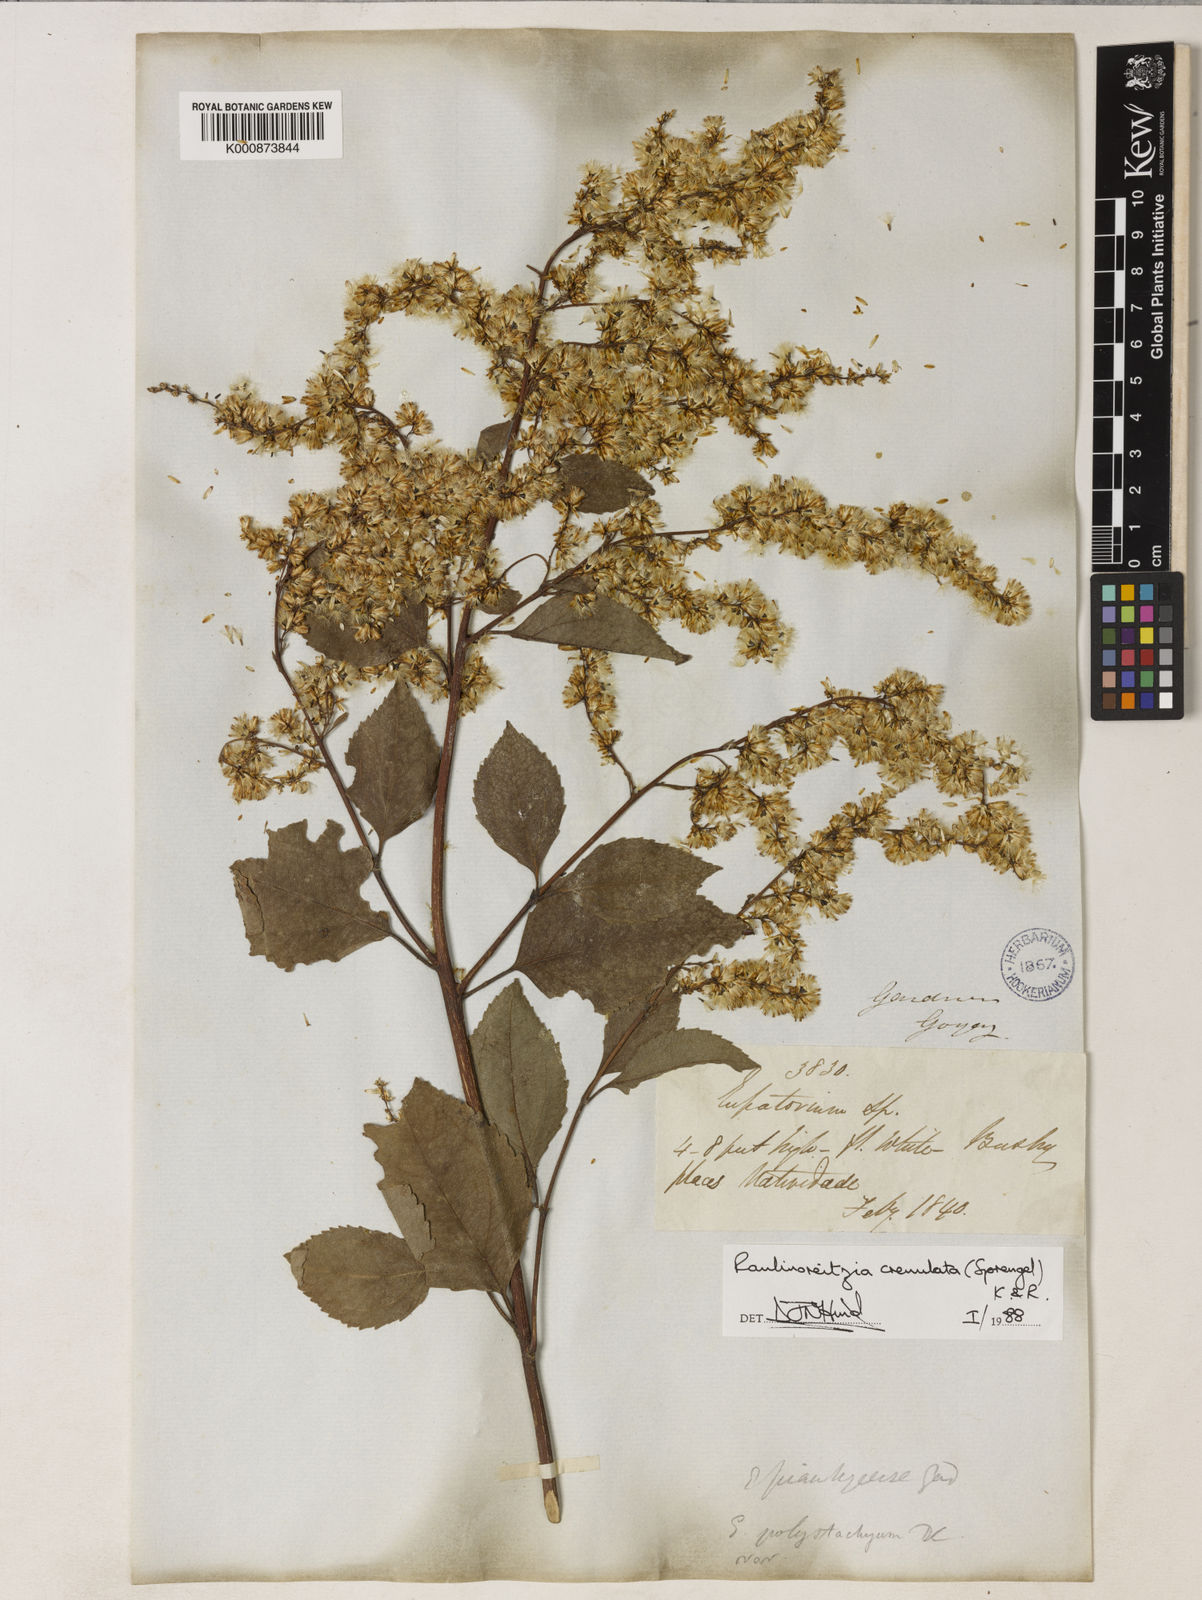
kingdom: Plantae
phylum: Tracheophyta
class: Magnoliopsida
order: Asterales
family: Asteraceae
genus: Raulinoreitzia
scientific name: Raulinoreitzia crenulata
